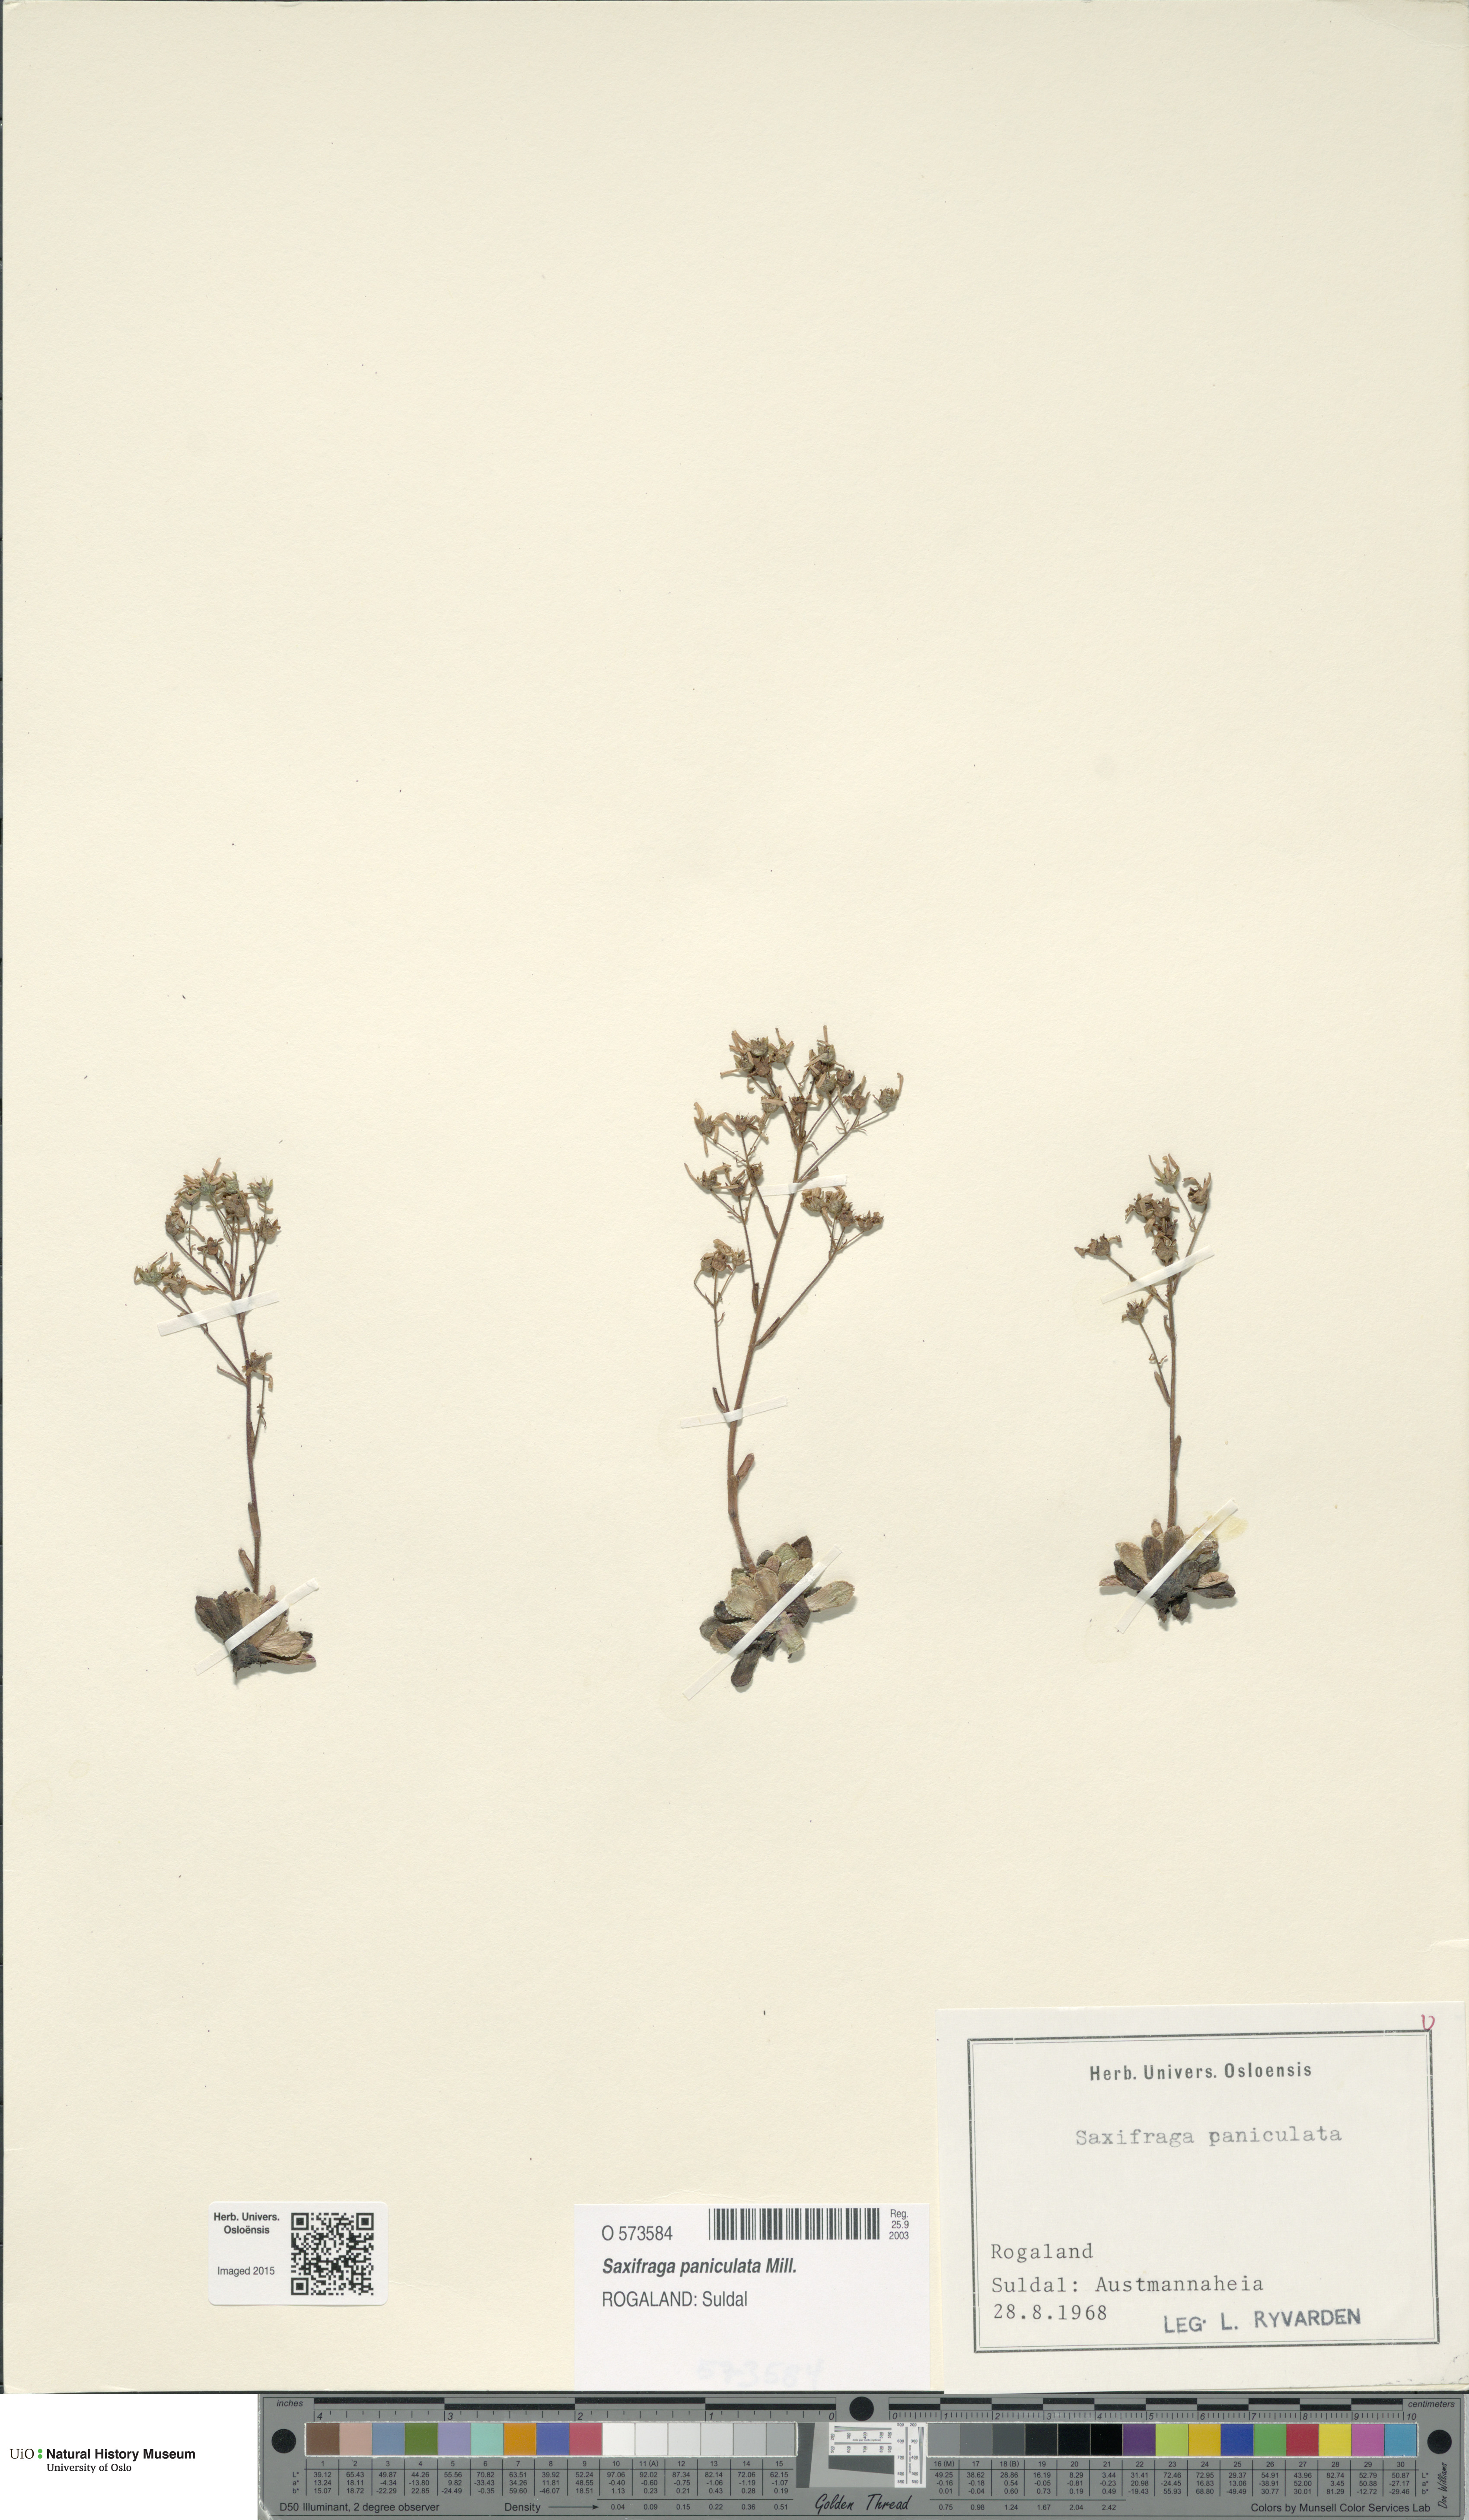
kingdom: Plantae
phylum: Tracheophyta
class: Magnoliopsida
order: Saxifragales
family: Saxifragaceae
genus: Saxifraga
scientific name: Saxifraga paniculata
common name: Livelong saxifrage
